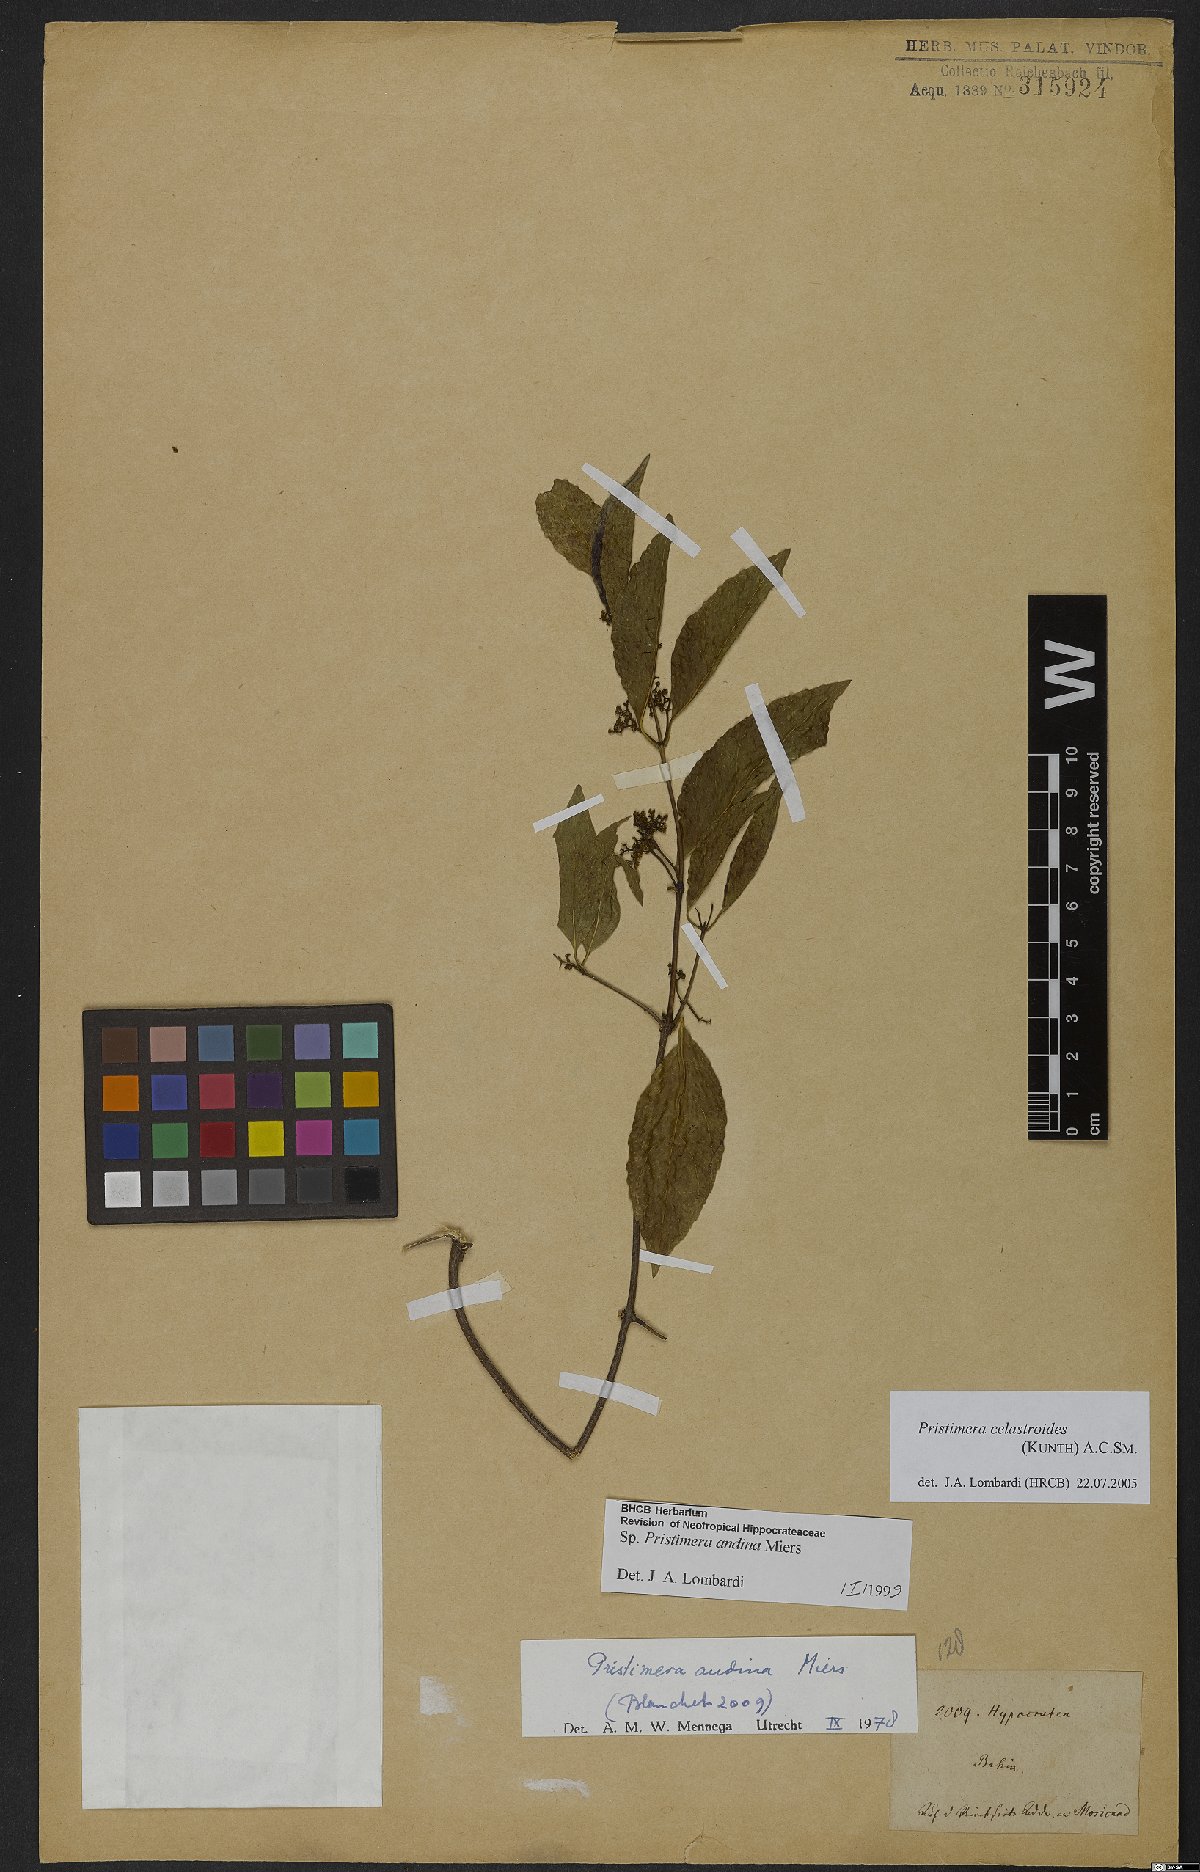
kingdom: Plantae
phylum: Tracheophyta
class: Magnoliopsida
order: Celastrales
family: Celastraceae
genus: Pristimera
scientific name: Pristimera celastroides
